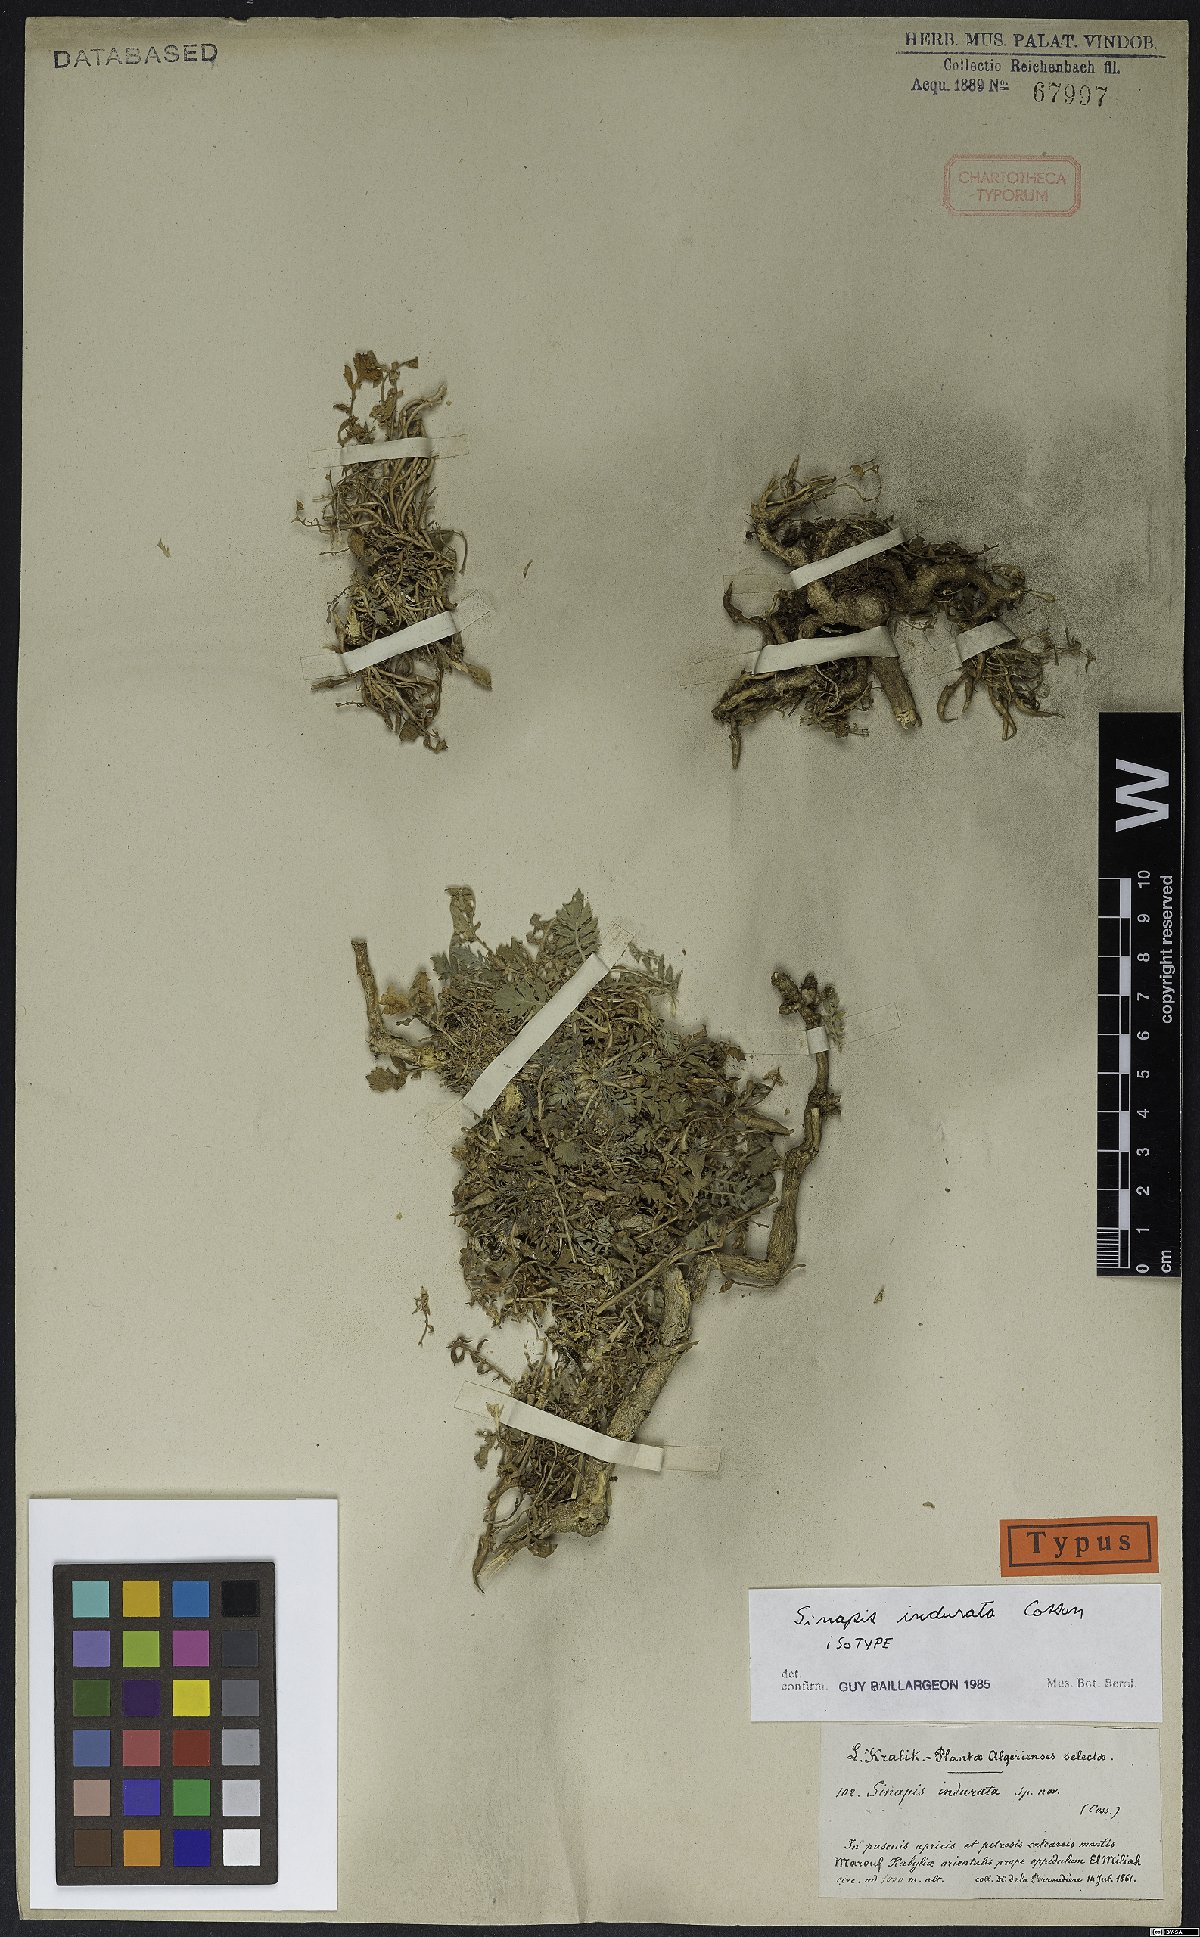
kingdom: Plantae
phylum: Tracheophyta
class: Magnoliopsida
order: Brassicales
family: Brassicaceae
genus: Sinapis
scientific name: Sinapis pubescens
